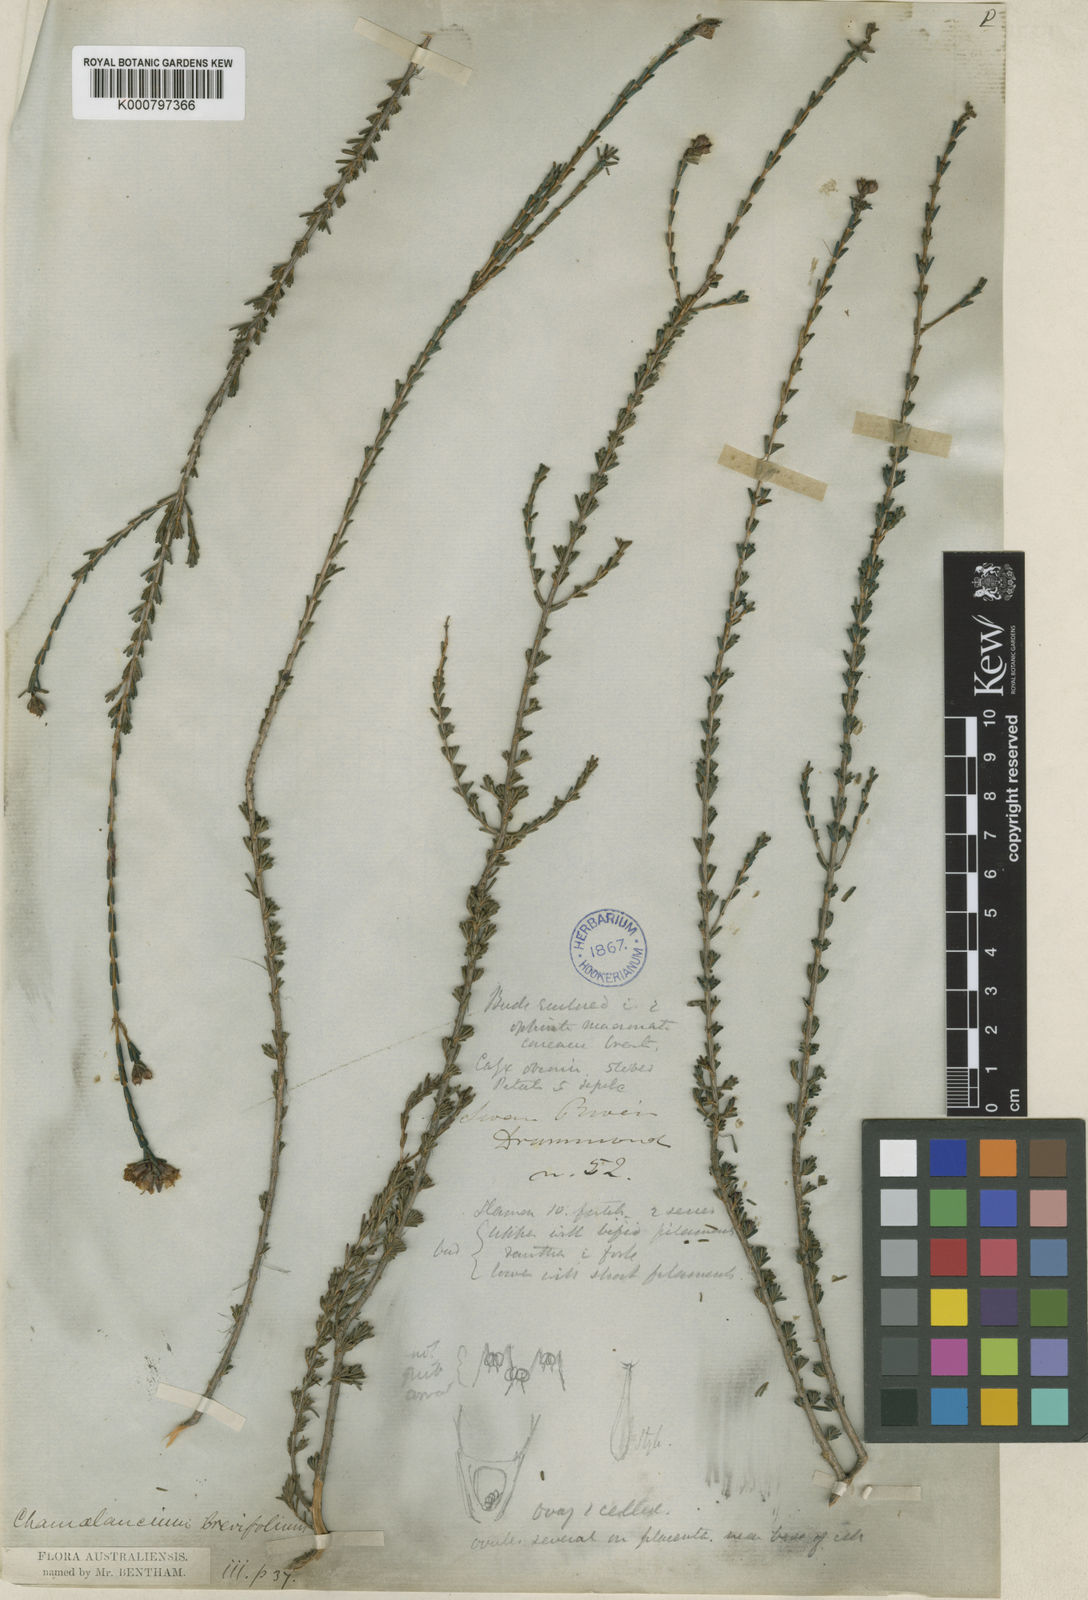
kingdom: Plantae
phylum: Tracheophyta
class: Magnoliopsida
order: Myrtales
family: Myrtaceae
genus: Chamelaucium
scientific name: Chamelaucium drummondii
